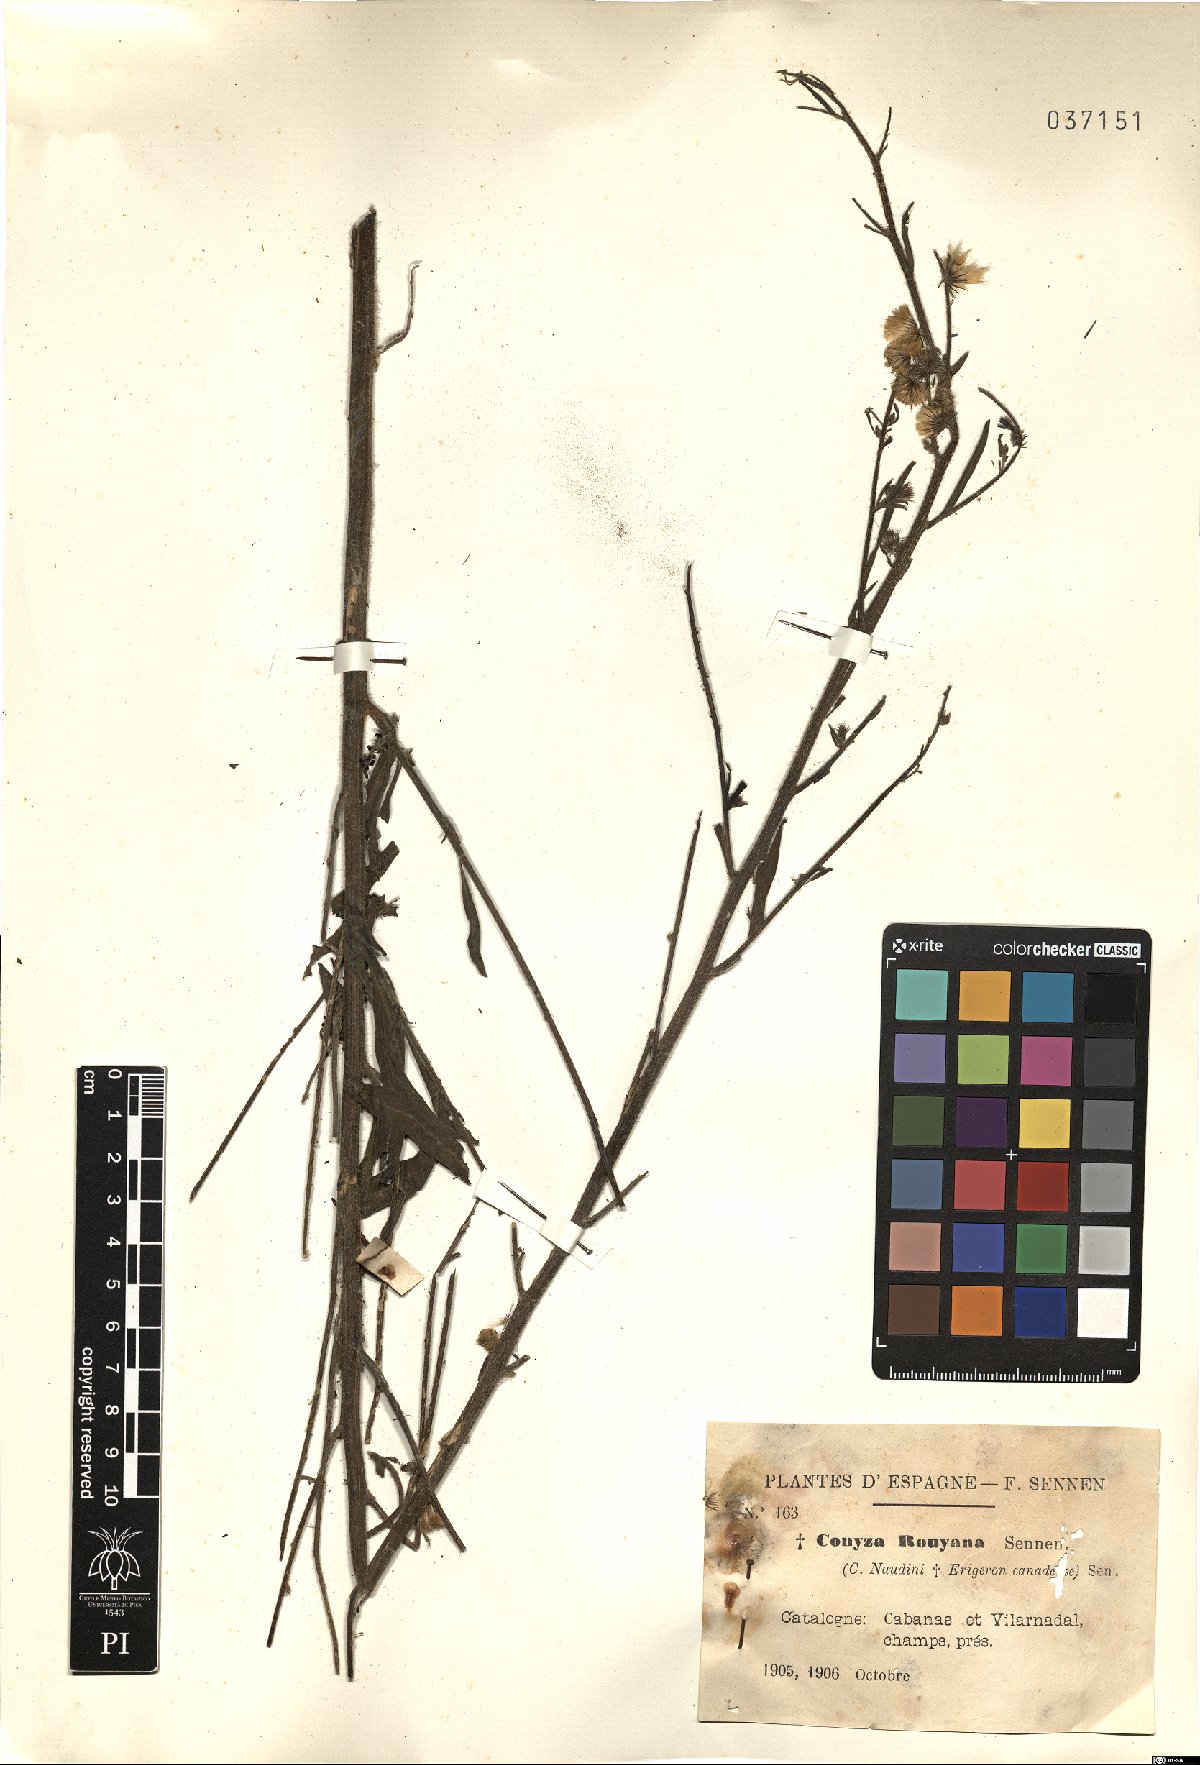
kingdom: Plantae
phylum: Tracheophyta
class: Magnoliopsida
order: Asterales
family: Asteraceae
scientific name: Asteraceae
